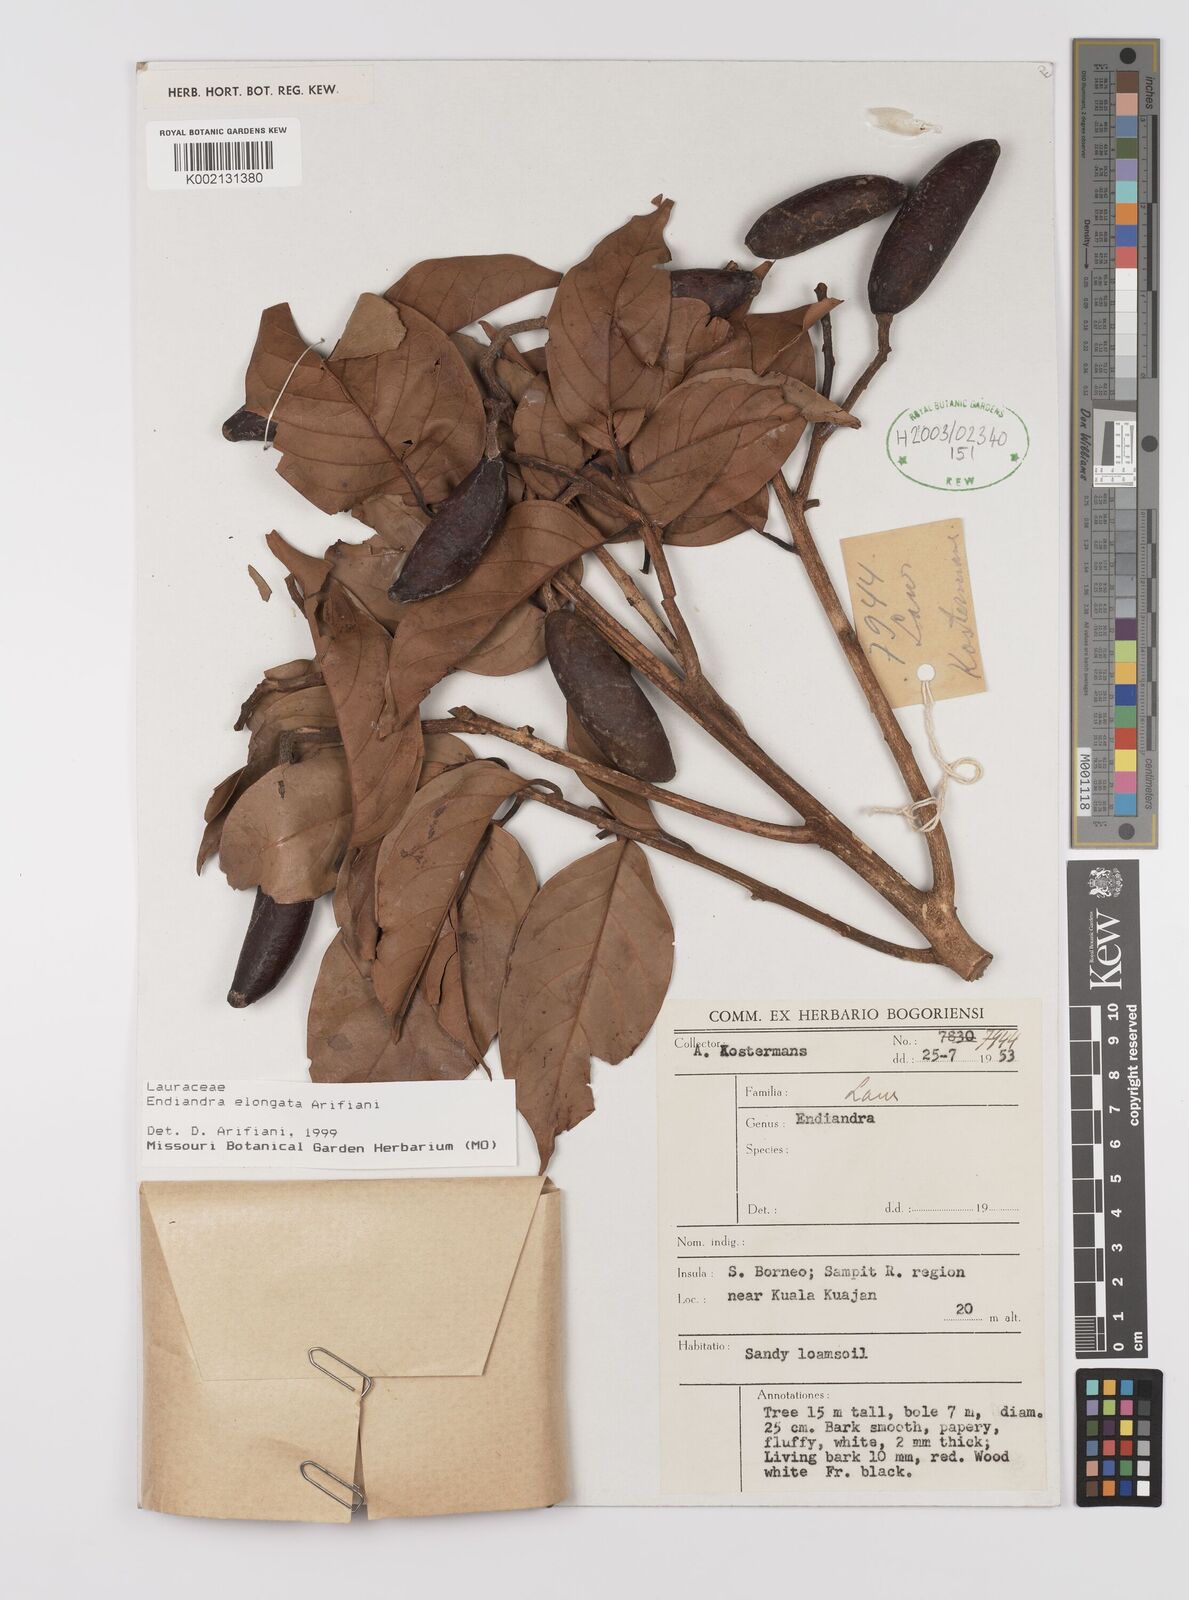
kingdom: Plantae
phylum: Tracheophyta
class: Magnoliopsida
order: Laurales
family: Lauraceae
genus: Endiandra
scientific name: Endiandra elongata
